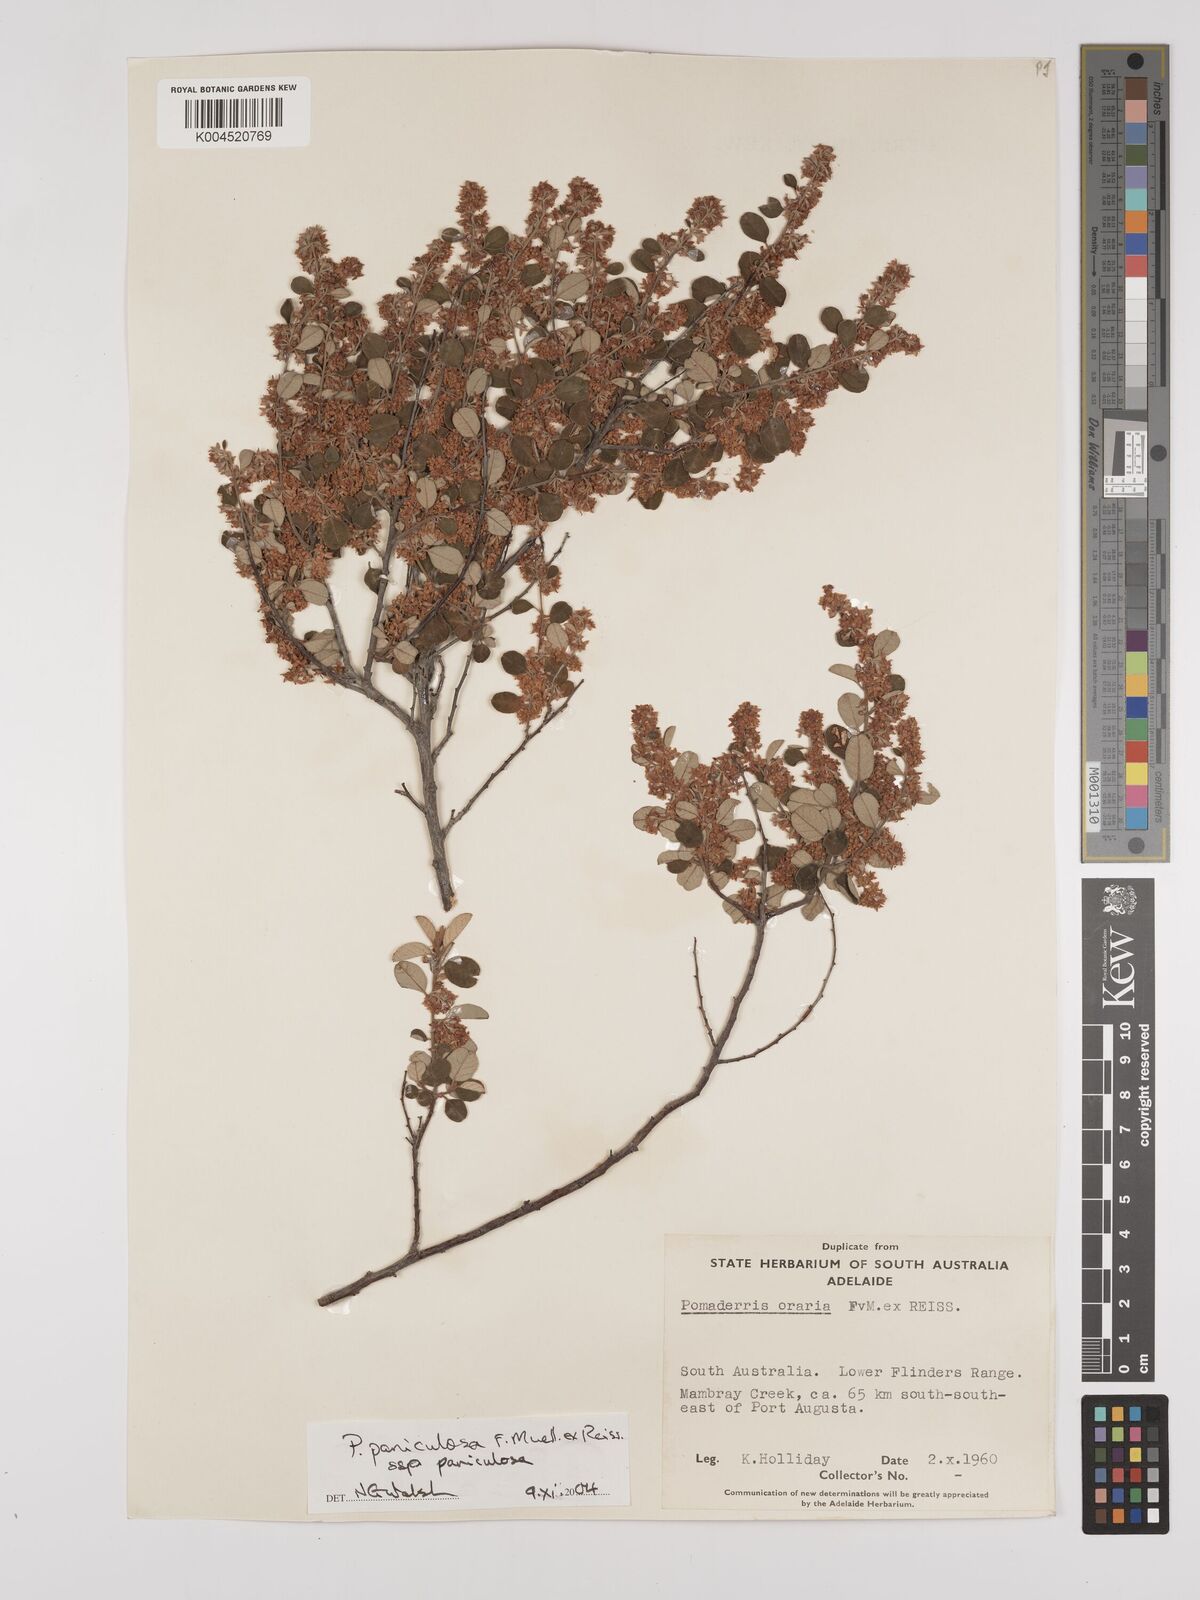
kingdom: Plantae
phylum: Tracheophyta
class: Magnoliopsida
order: Rosales
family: Rhamnaceae
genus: Pomaderris
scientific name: Pomaderris paniculosa
